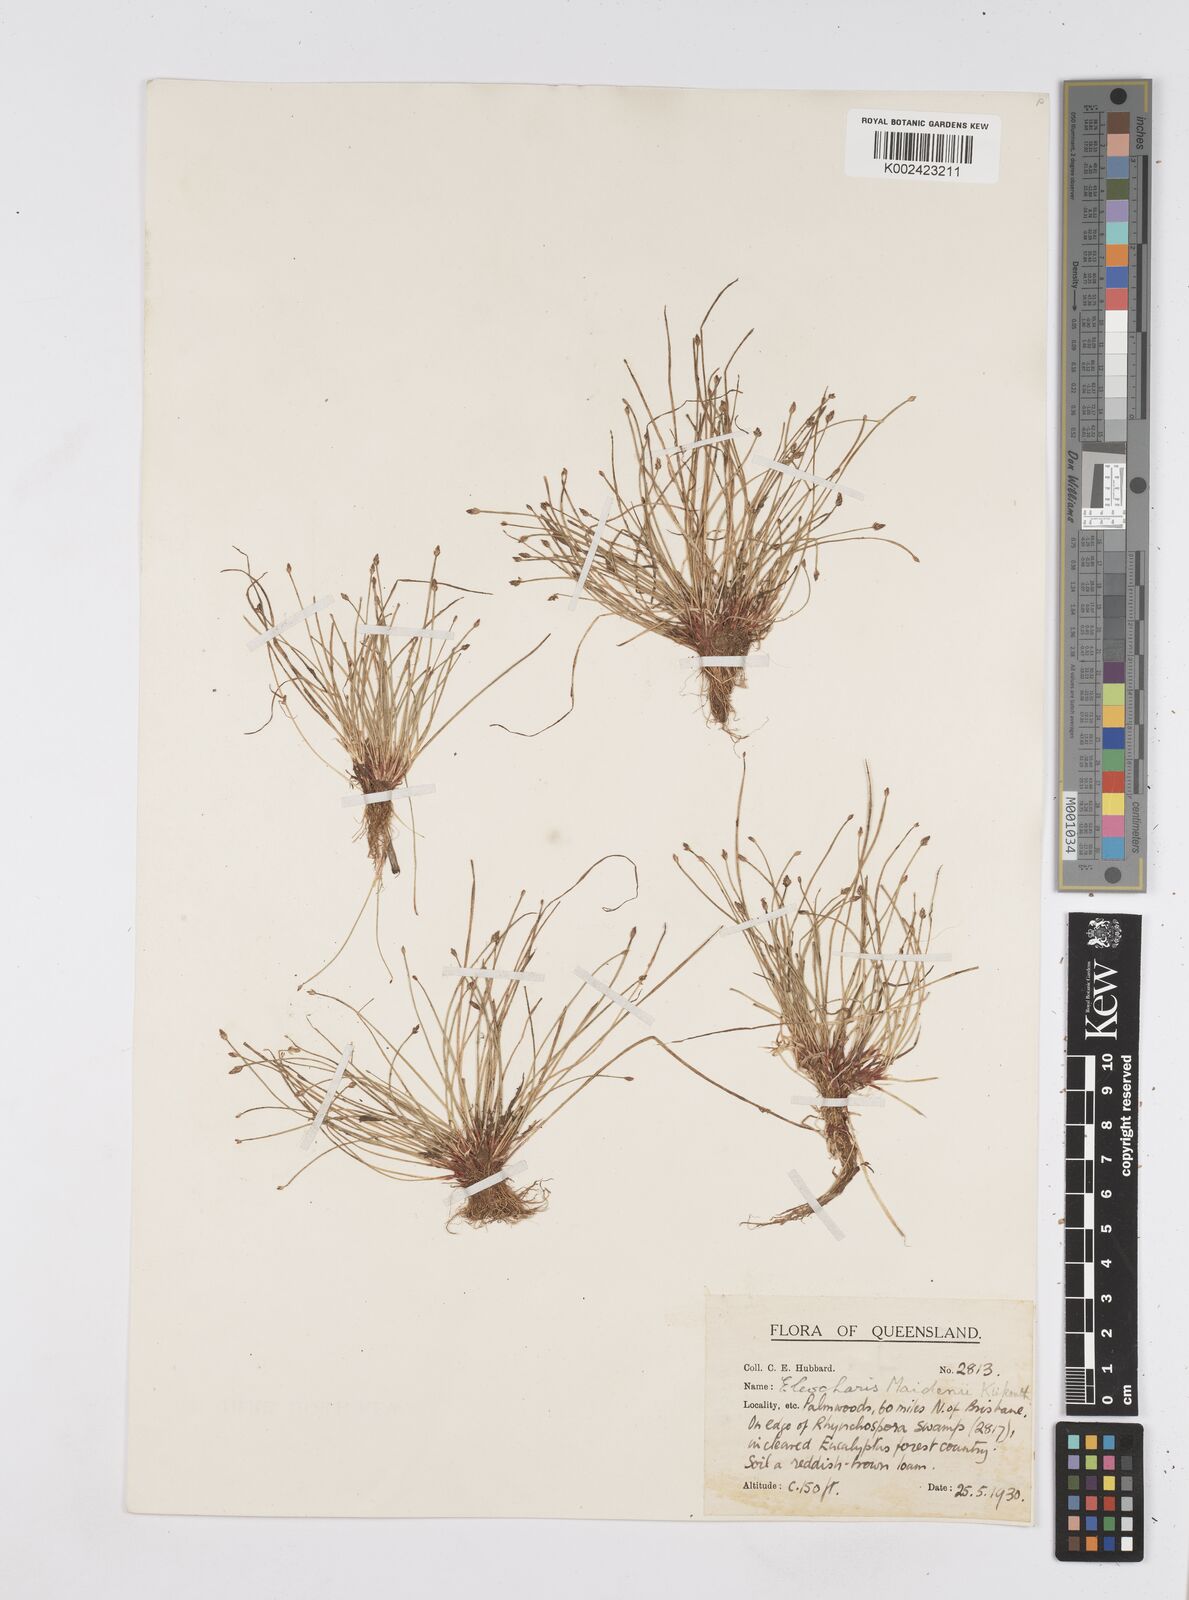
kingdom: Plantae
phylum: Tracheophyta
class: Liliopsida
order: Poales
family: Cyperaceae
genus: Eleocharis
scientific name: Eleocharis minuta
